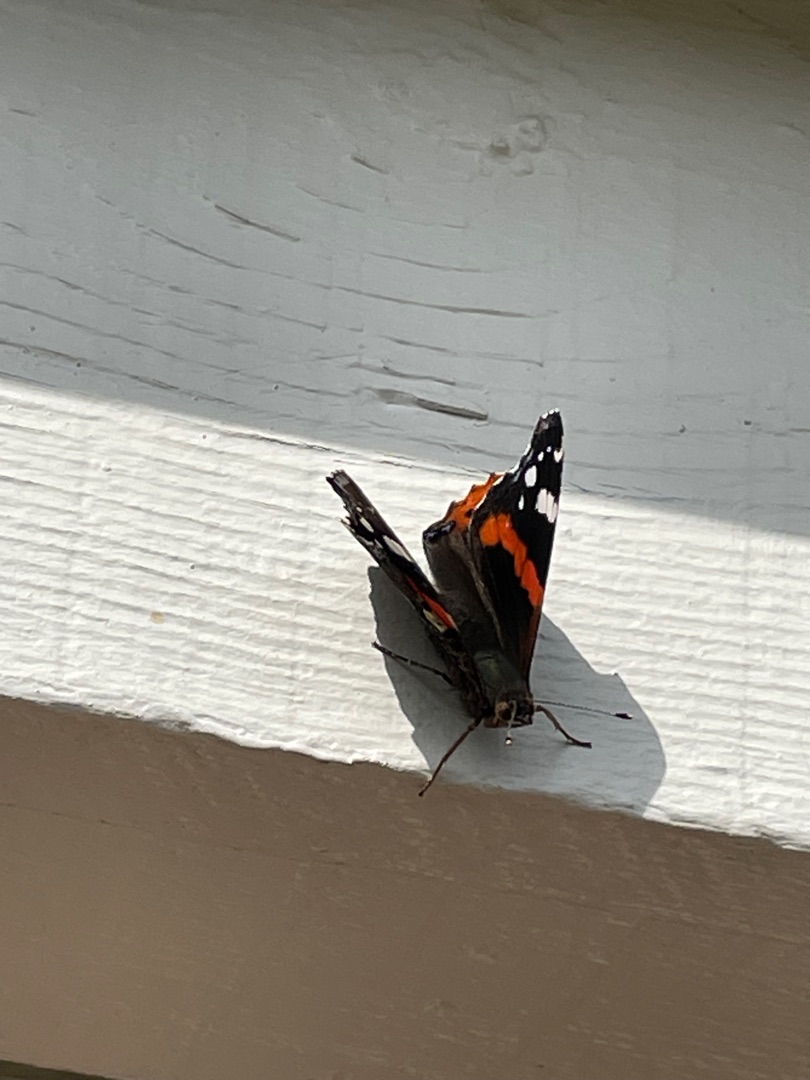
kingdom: Animalia
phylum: Arthropoda
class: Insecta
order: Lepidoptera
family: Nymphalidae
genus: Vanessa
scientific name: Vanessa atalanta
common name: Admiral
